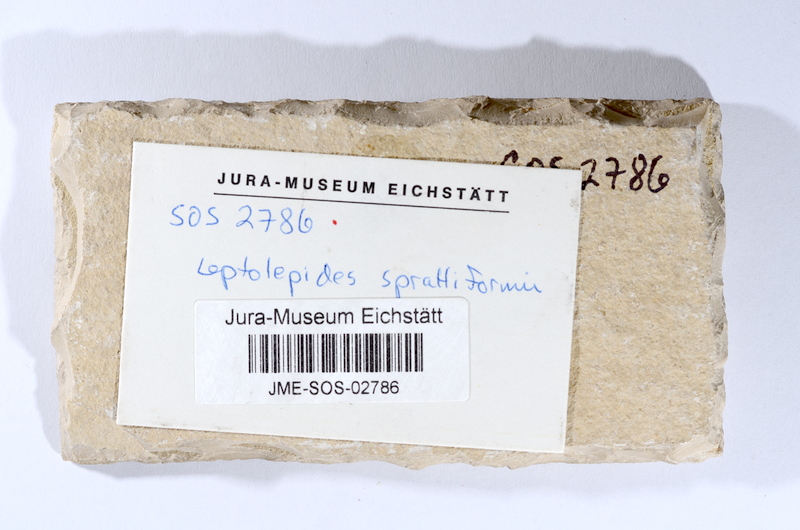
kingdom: Animalia
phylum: Chordata
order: Salmoniformes
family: Orthogonikleithridae
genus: Leptolepides
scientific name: Leptolepides sprattiformis
